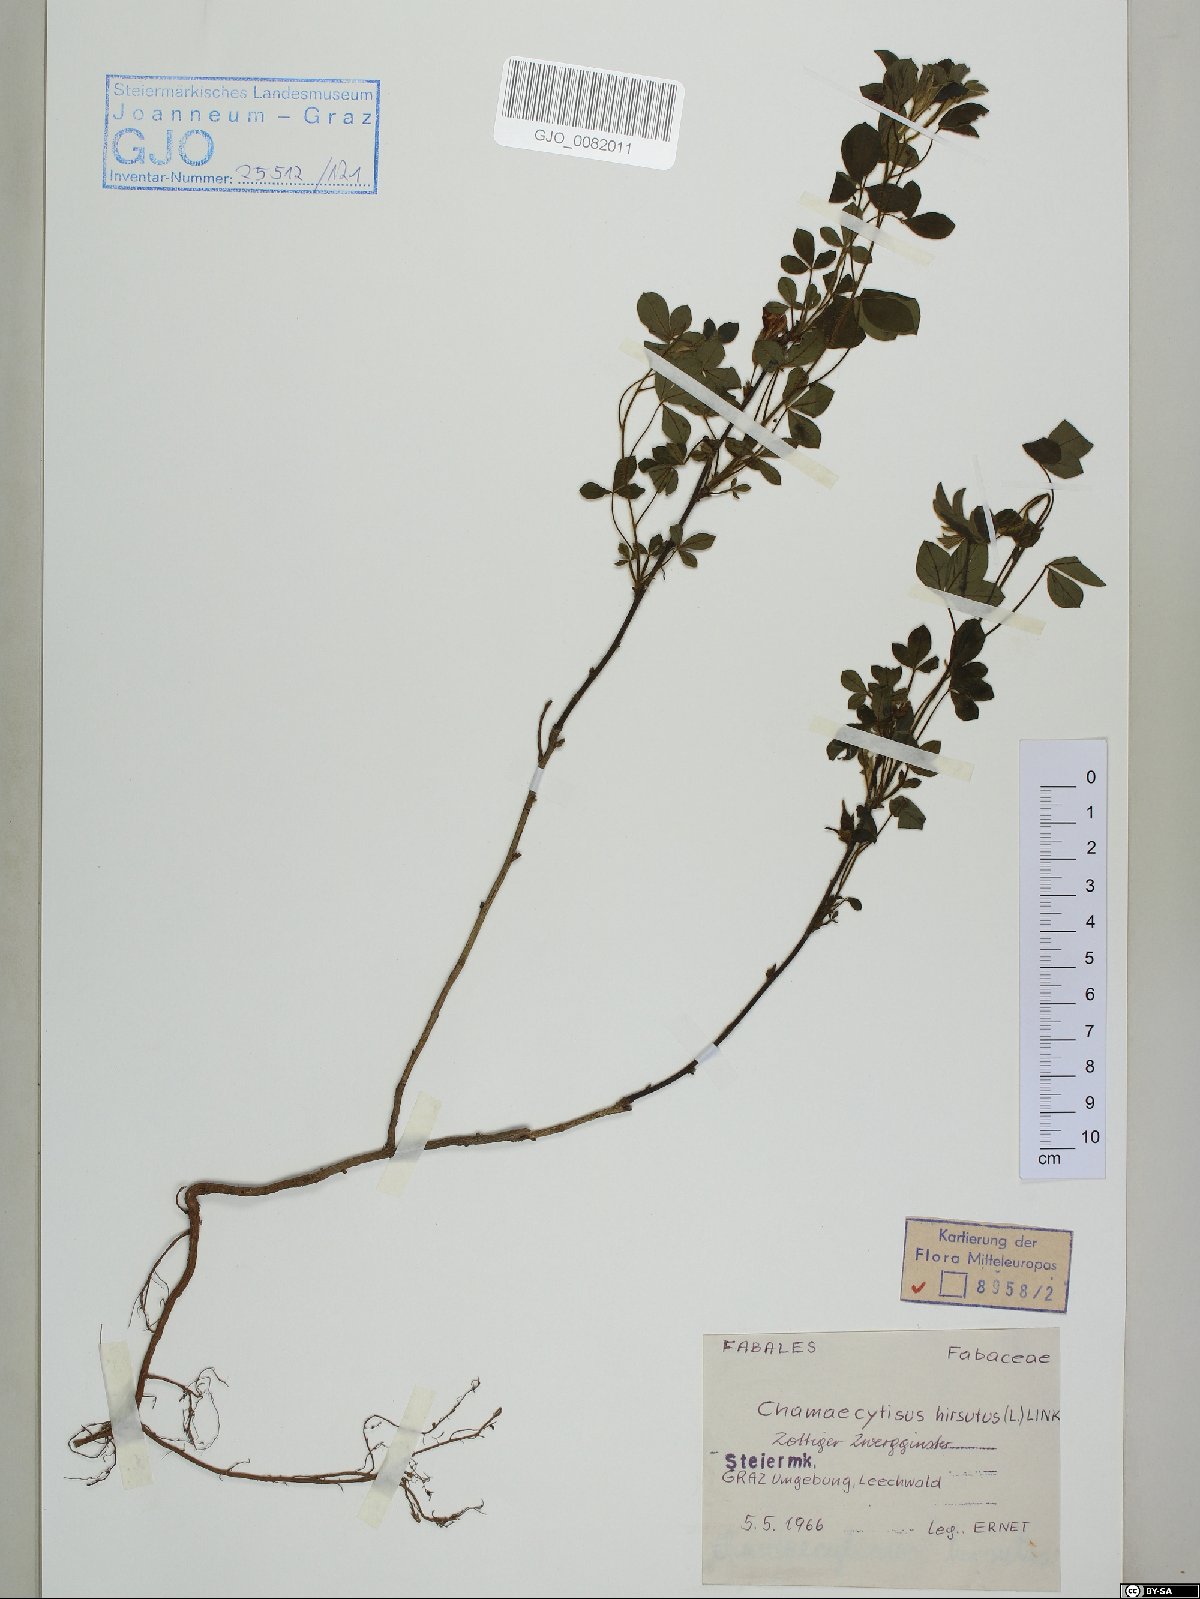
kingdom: Plantae
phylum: Tracheophyta
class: Magnoliopsida
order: Fabales
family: Fabaceae
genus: Chamaecytisus
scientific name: Chamaecytisus hirsutus
